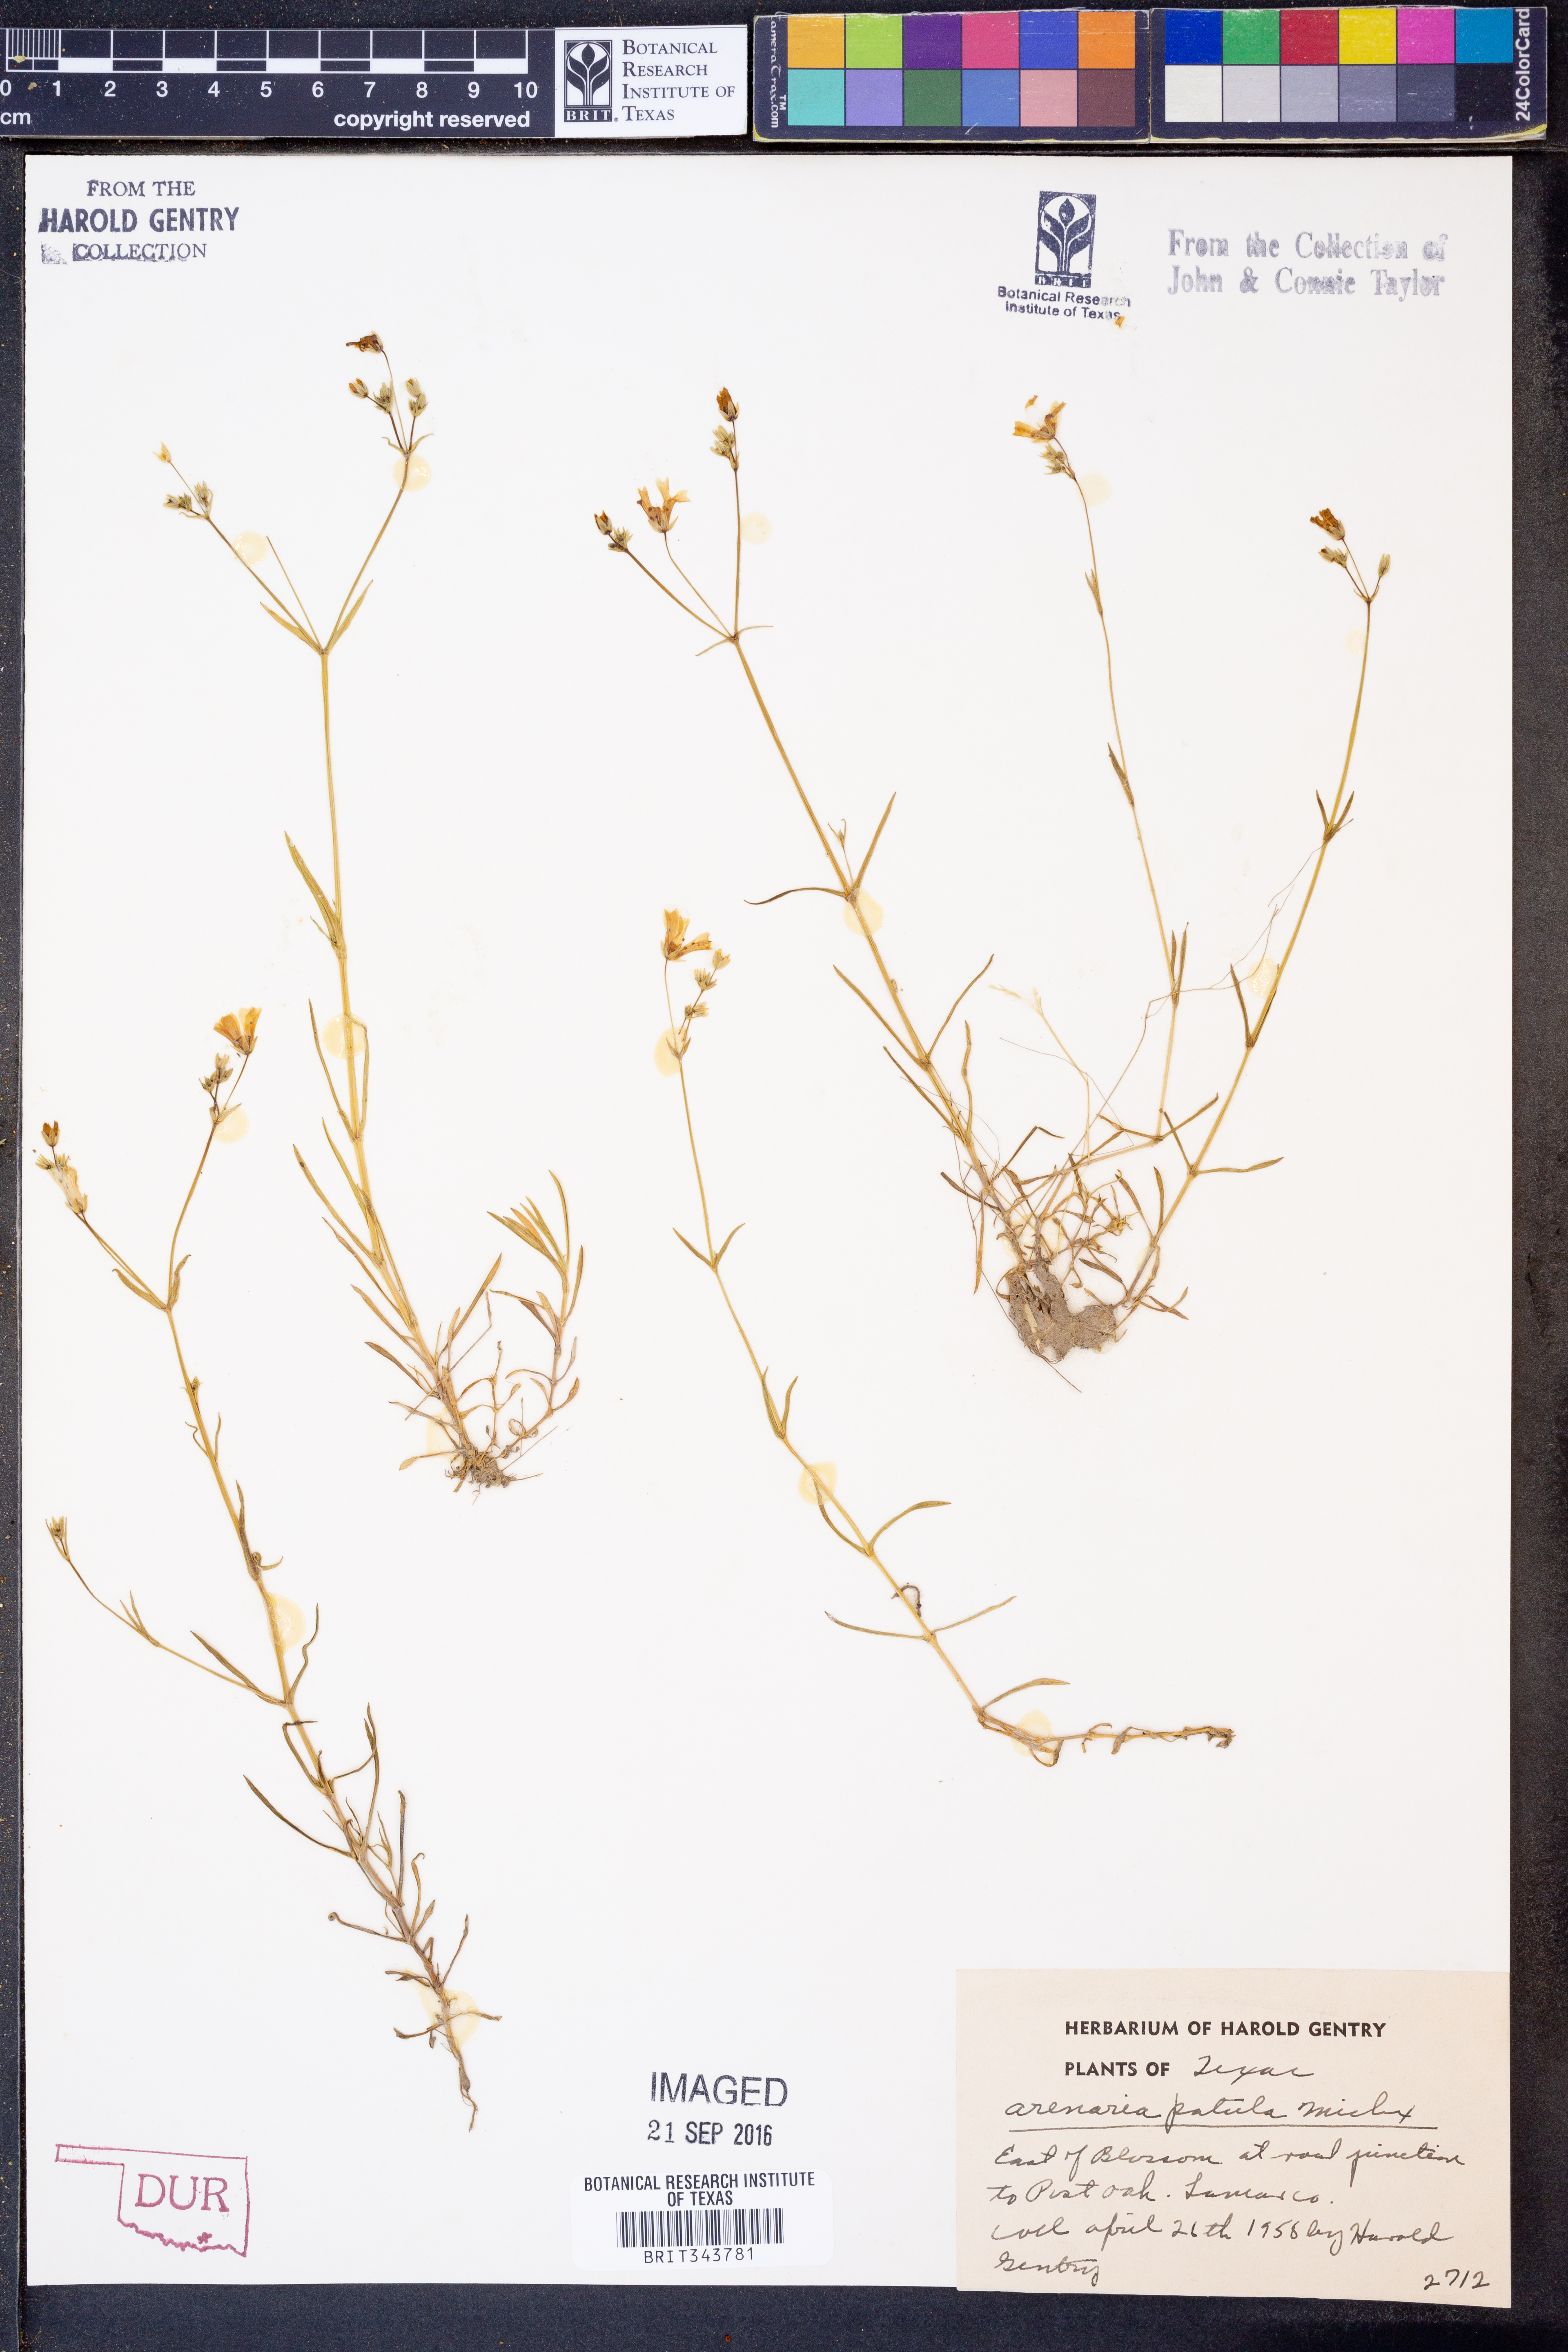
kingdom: Plantae
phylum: Tracheophyta
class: Magnoliopsida
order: Caryophyllales
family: Caryophyllaceae
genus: Mononeuria
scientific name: Mononeuria patula
